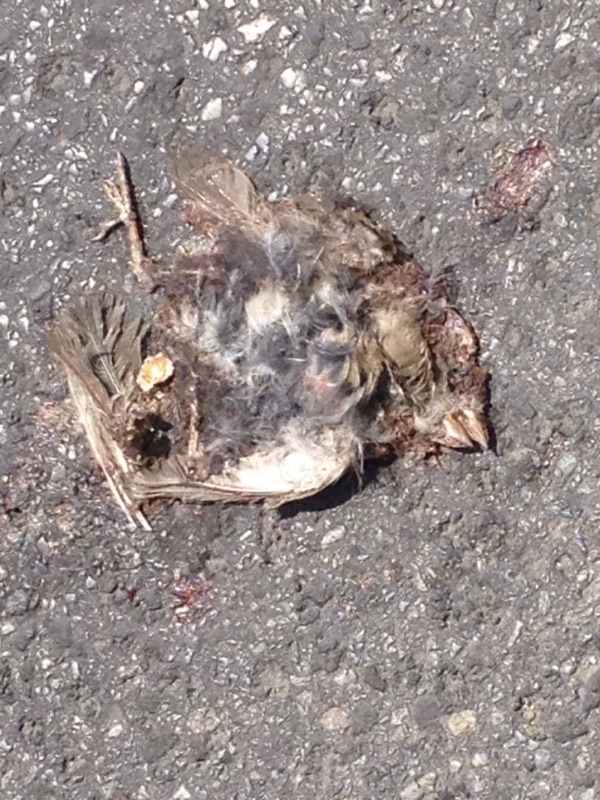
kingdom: Animalia
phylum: Chordata
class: Aves
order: Passeriformes
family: Passeridae
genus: Passer
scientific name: Passer
